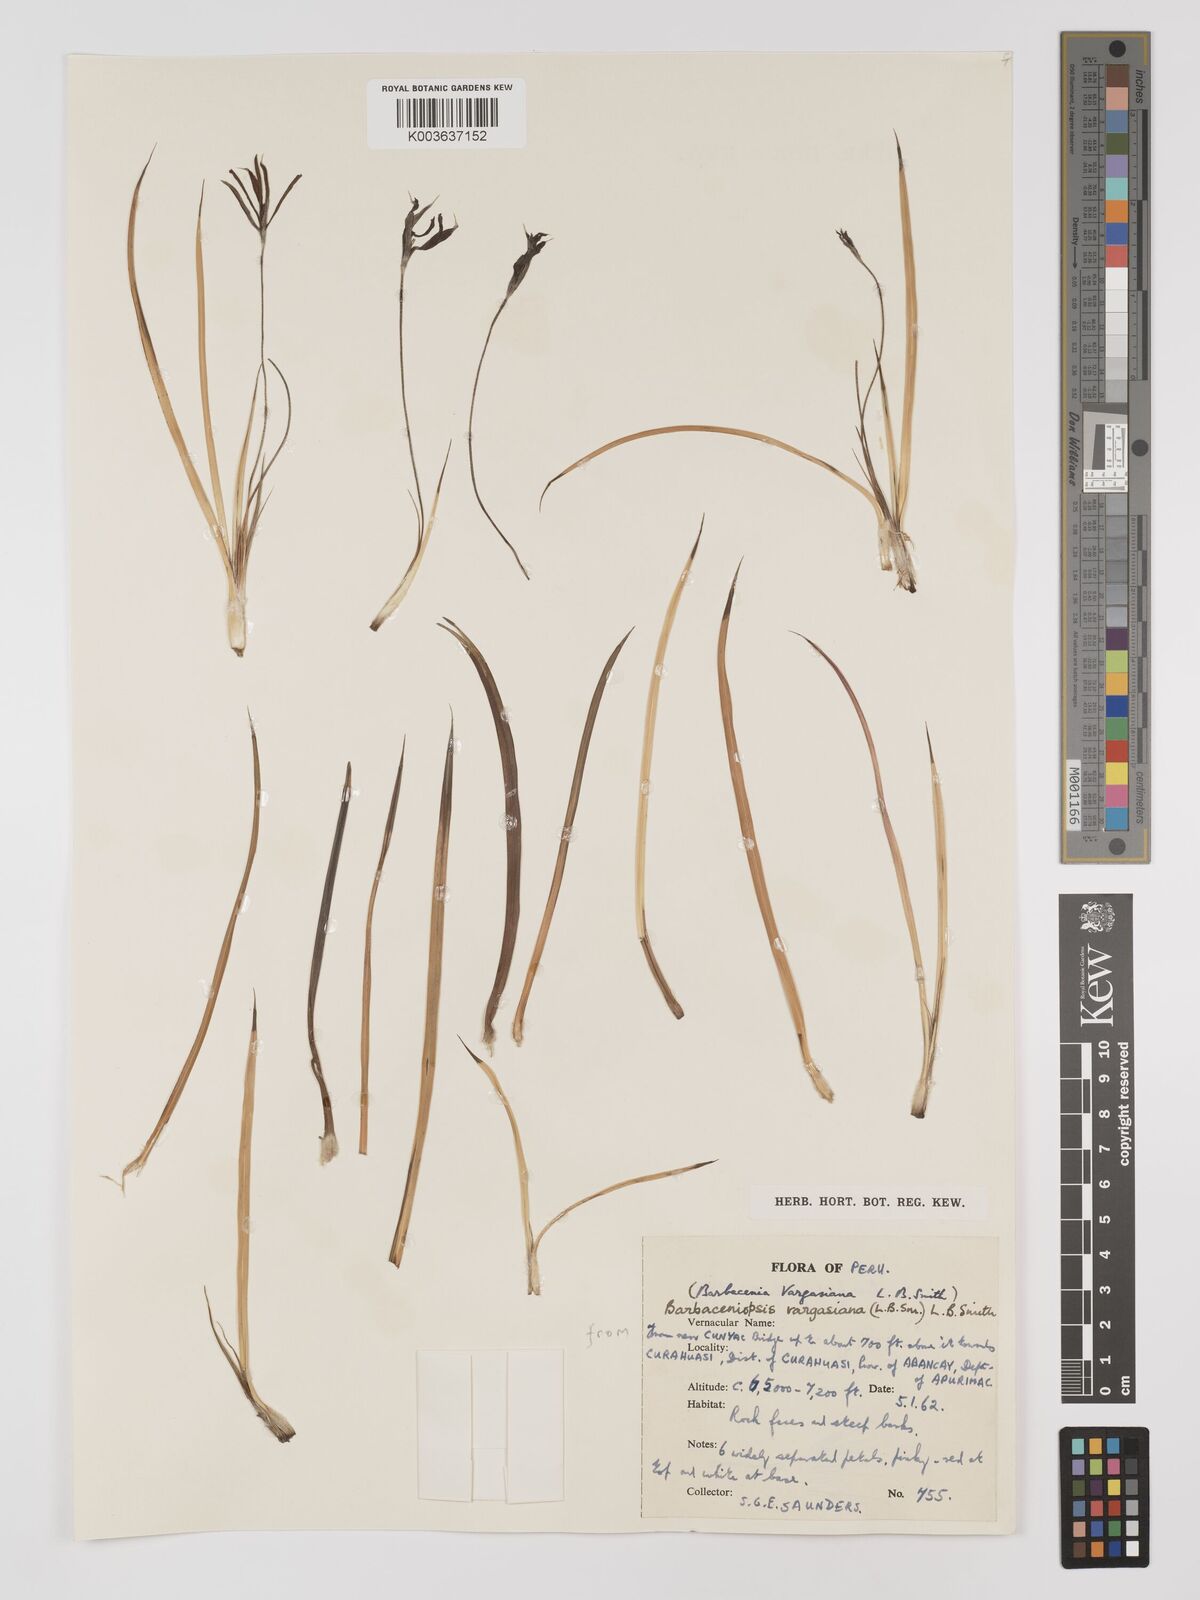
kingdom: Plantae
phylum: Tracheophyta
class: Liliopsida
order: Pandanales
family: Velloziaceae
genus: Barbaceniopsis
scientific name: Barbaceniopsis vargasiana
